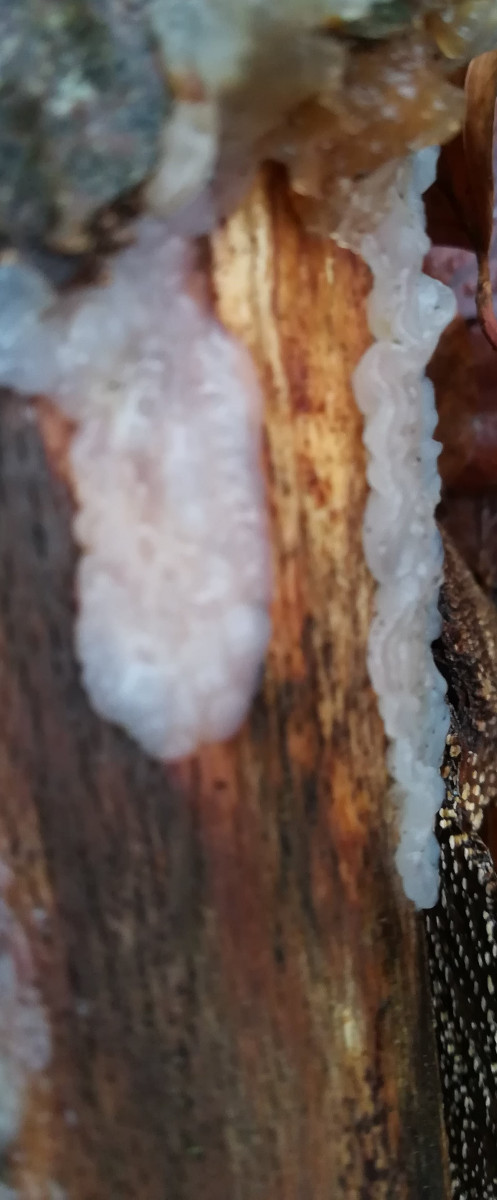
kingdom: Fungi
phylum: Basidiomycota
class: Agaricomycetes
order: Auriculariales
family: Auriculariaceae
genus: Exidia
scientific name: Exidia thuretiana
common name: hvidlig bævretop
